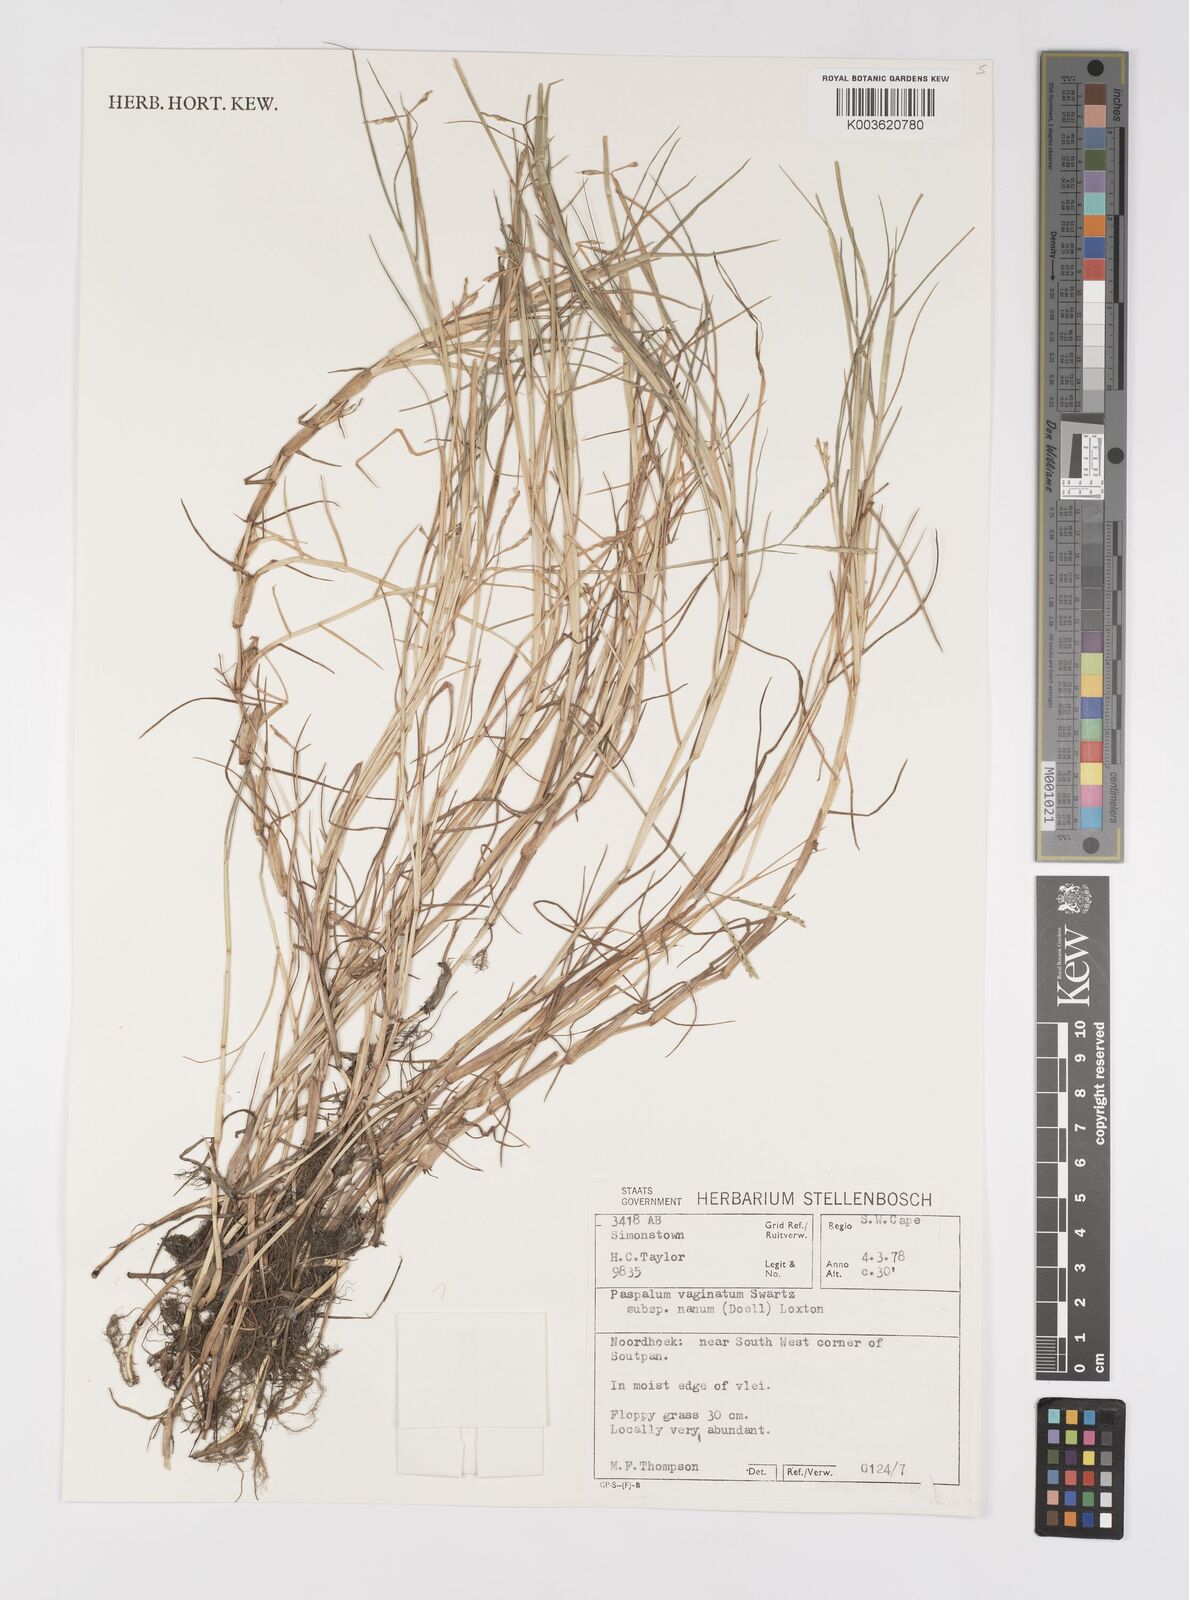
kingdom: Plantae
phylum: Tracheophyta
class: Liliopsida
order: Poales
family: Poaceae
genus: Paspalum
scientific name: Paspalum vaginatum
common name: Seashore paspalum
